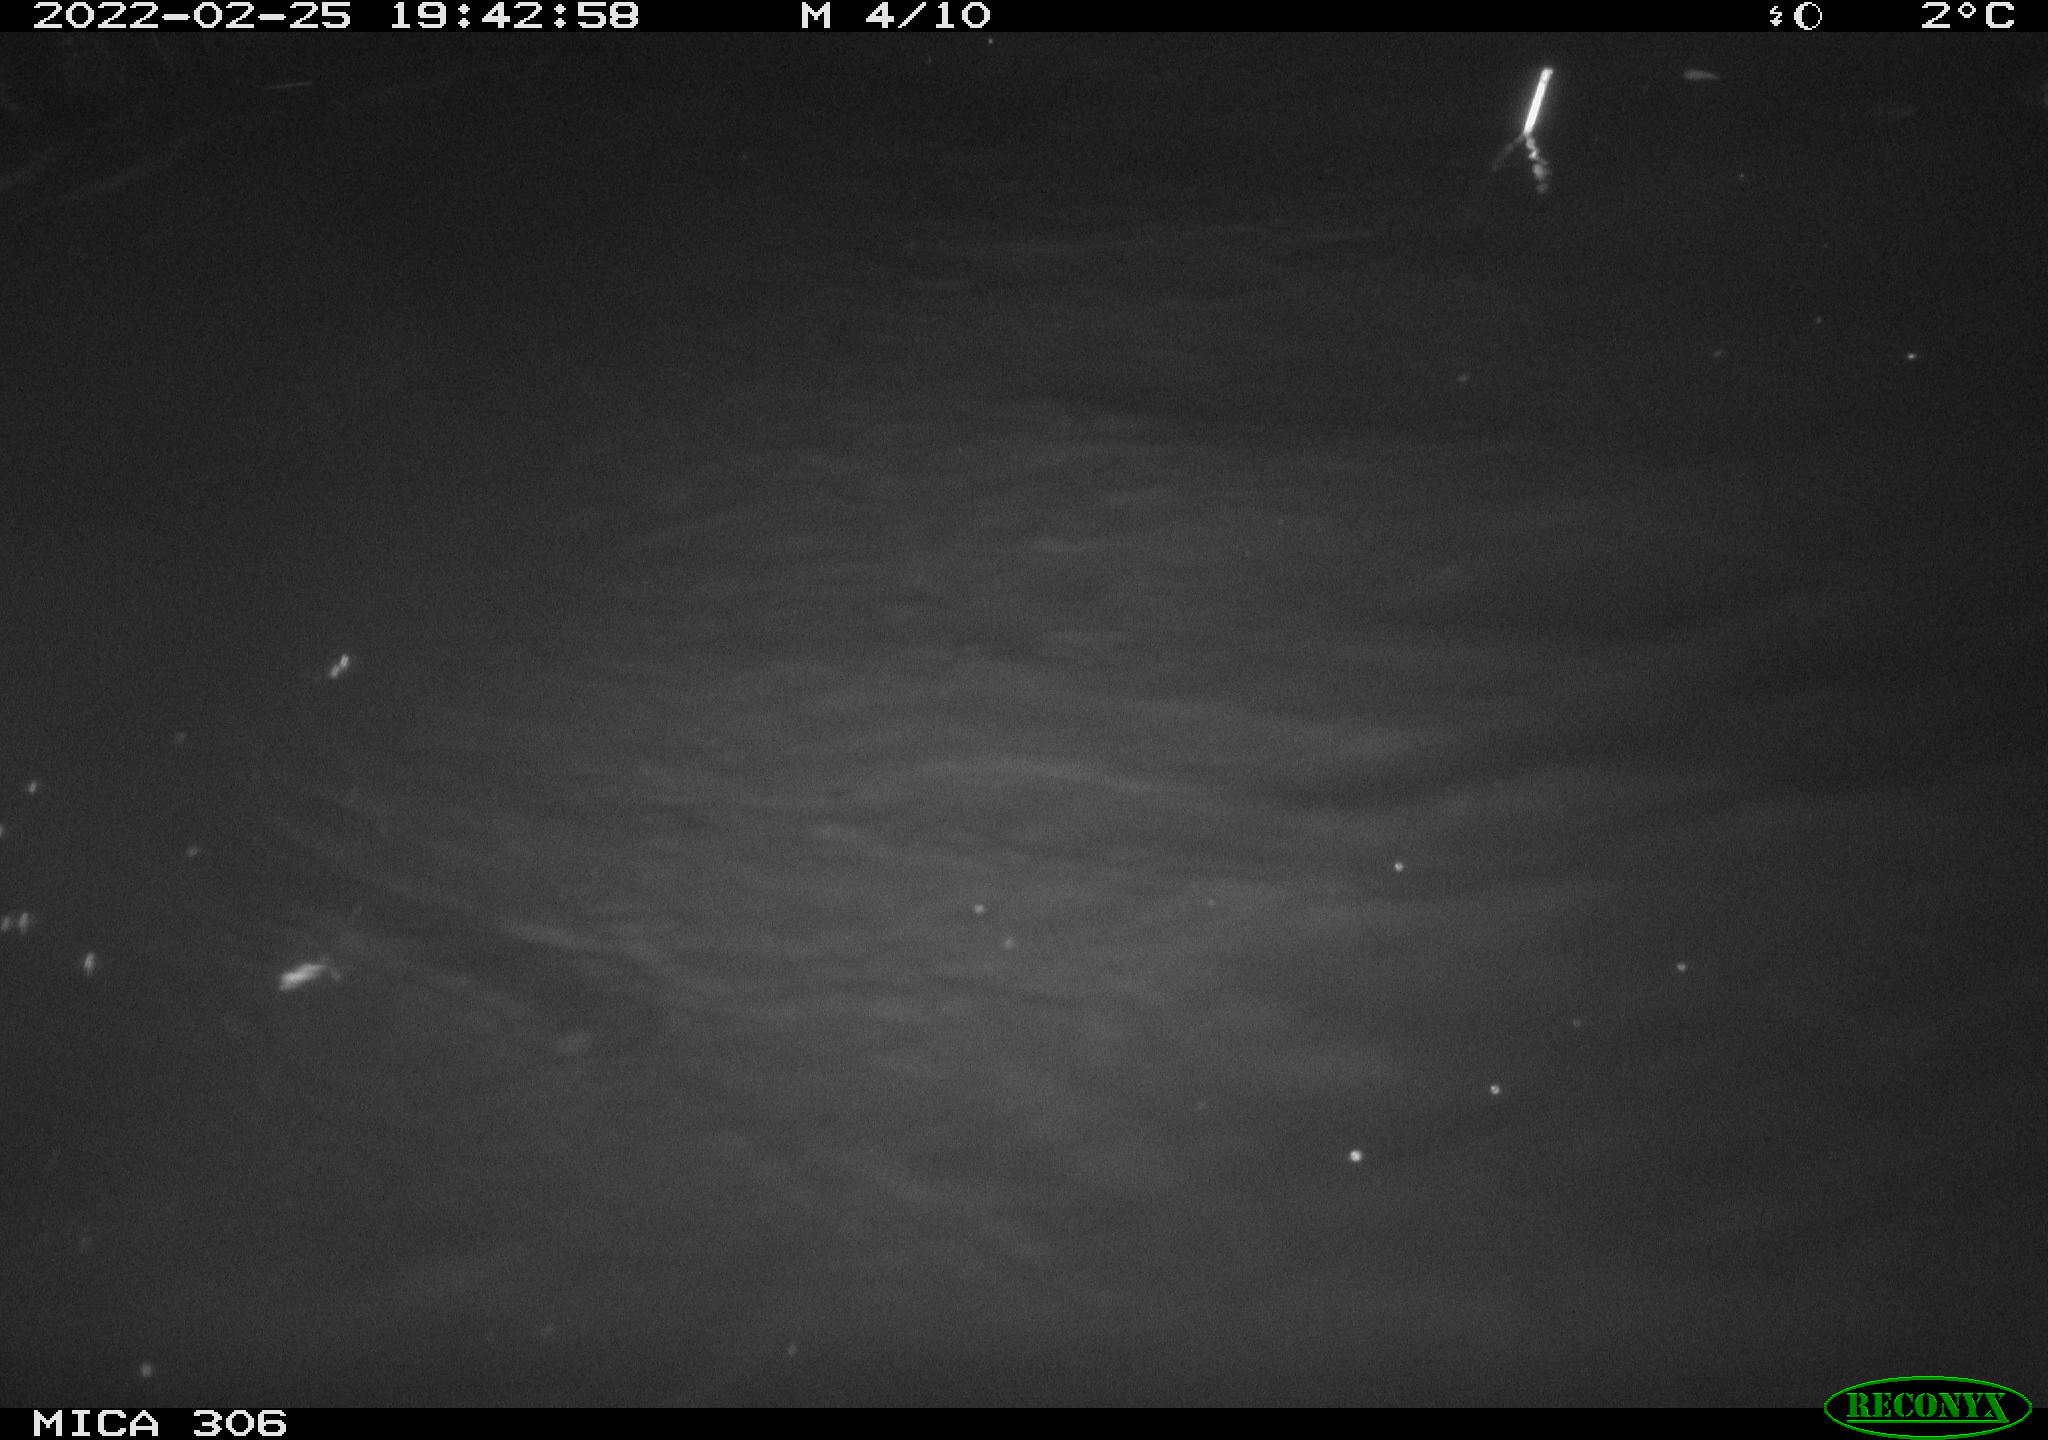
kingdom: Animalia
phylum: Chordata
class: Mammalia
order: Rodentia
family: Cricetidae
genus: Ondatra
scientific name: Ondatra zibethicus
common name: Muskrat
